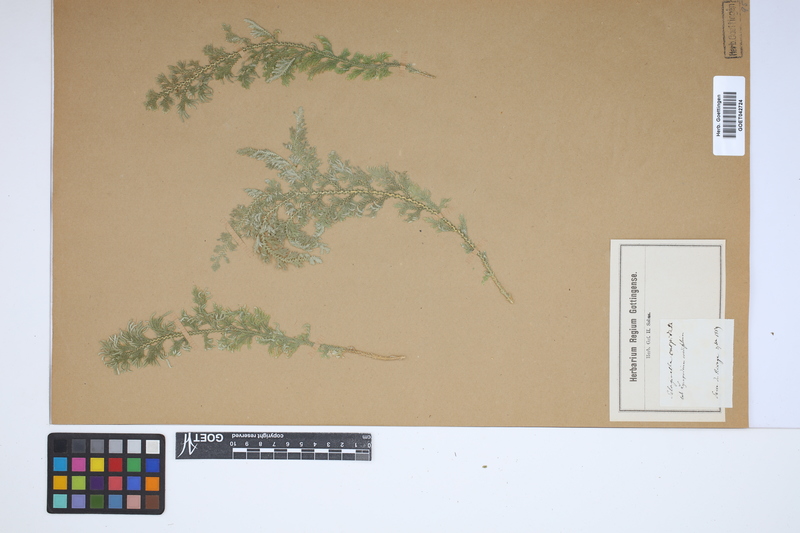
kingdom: Plantae
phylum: Tracheophyta
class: Lycopodiopsida
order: Selaginellales
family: Selaginellaceae
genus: Selaginella
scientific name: Selaginella pallescens
